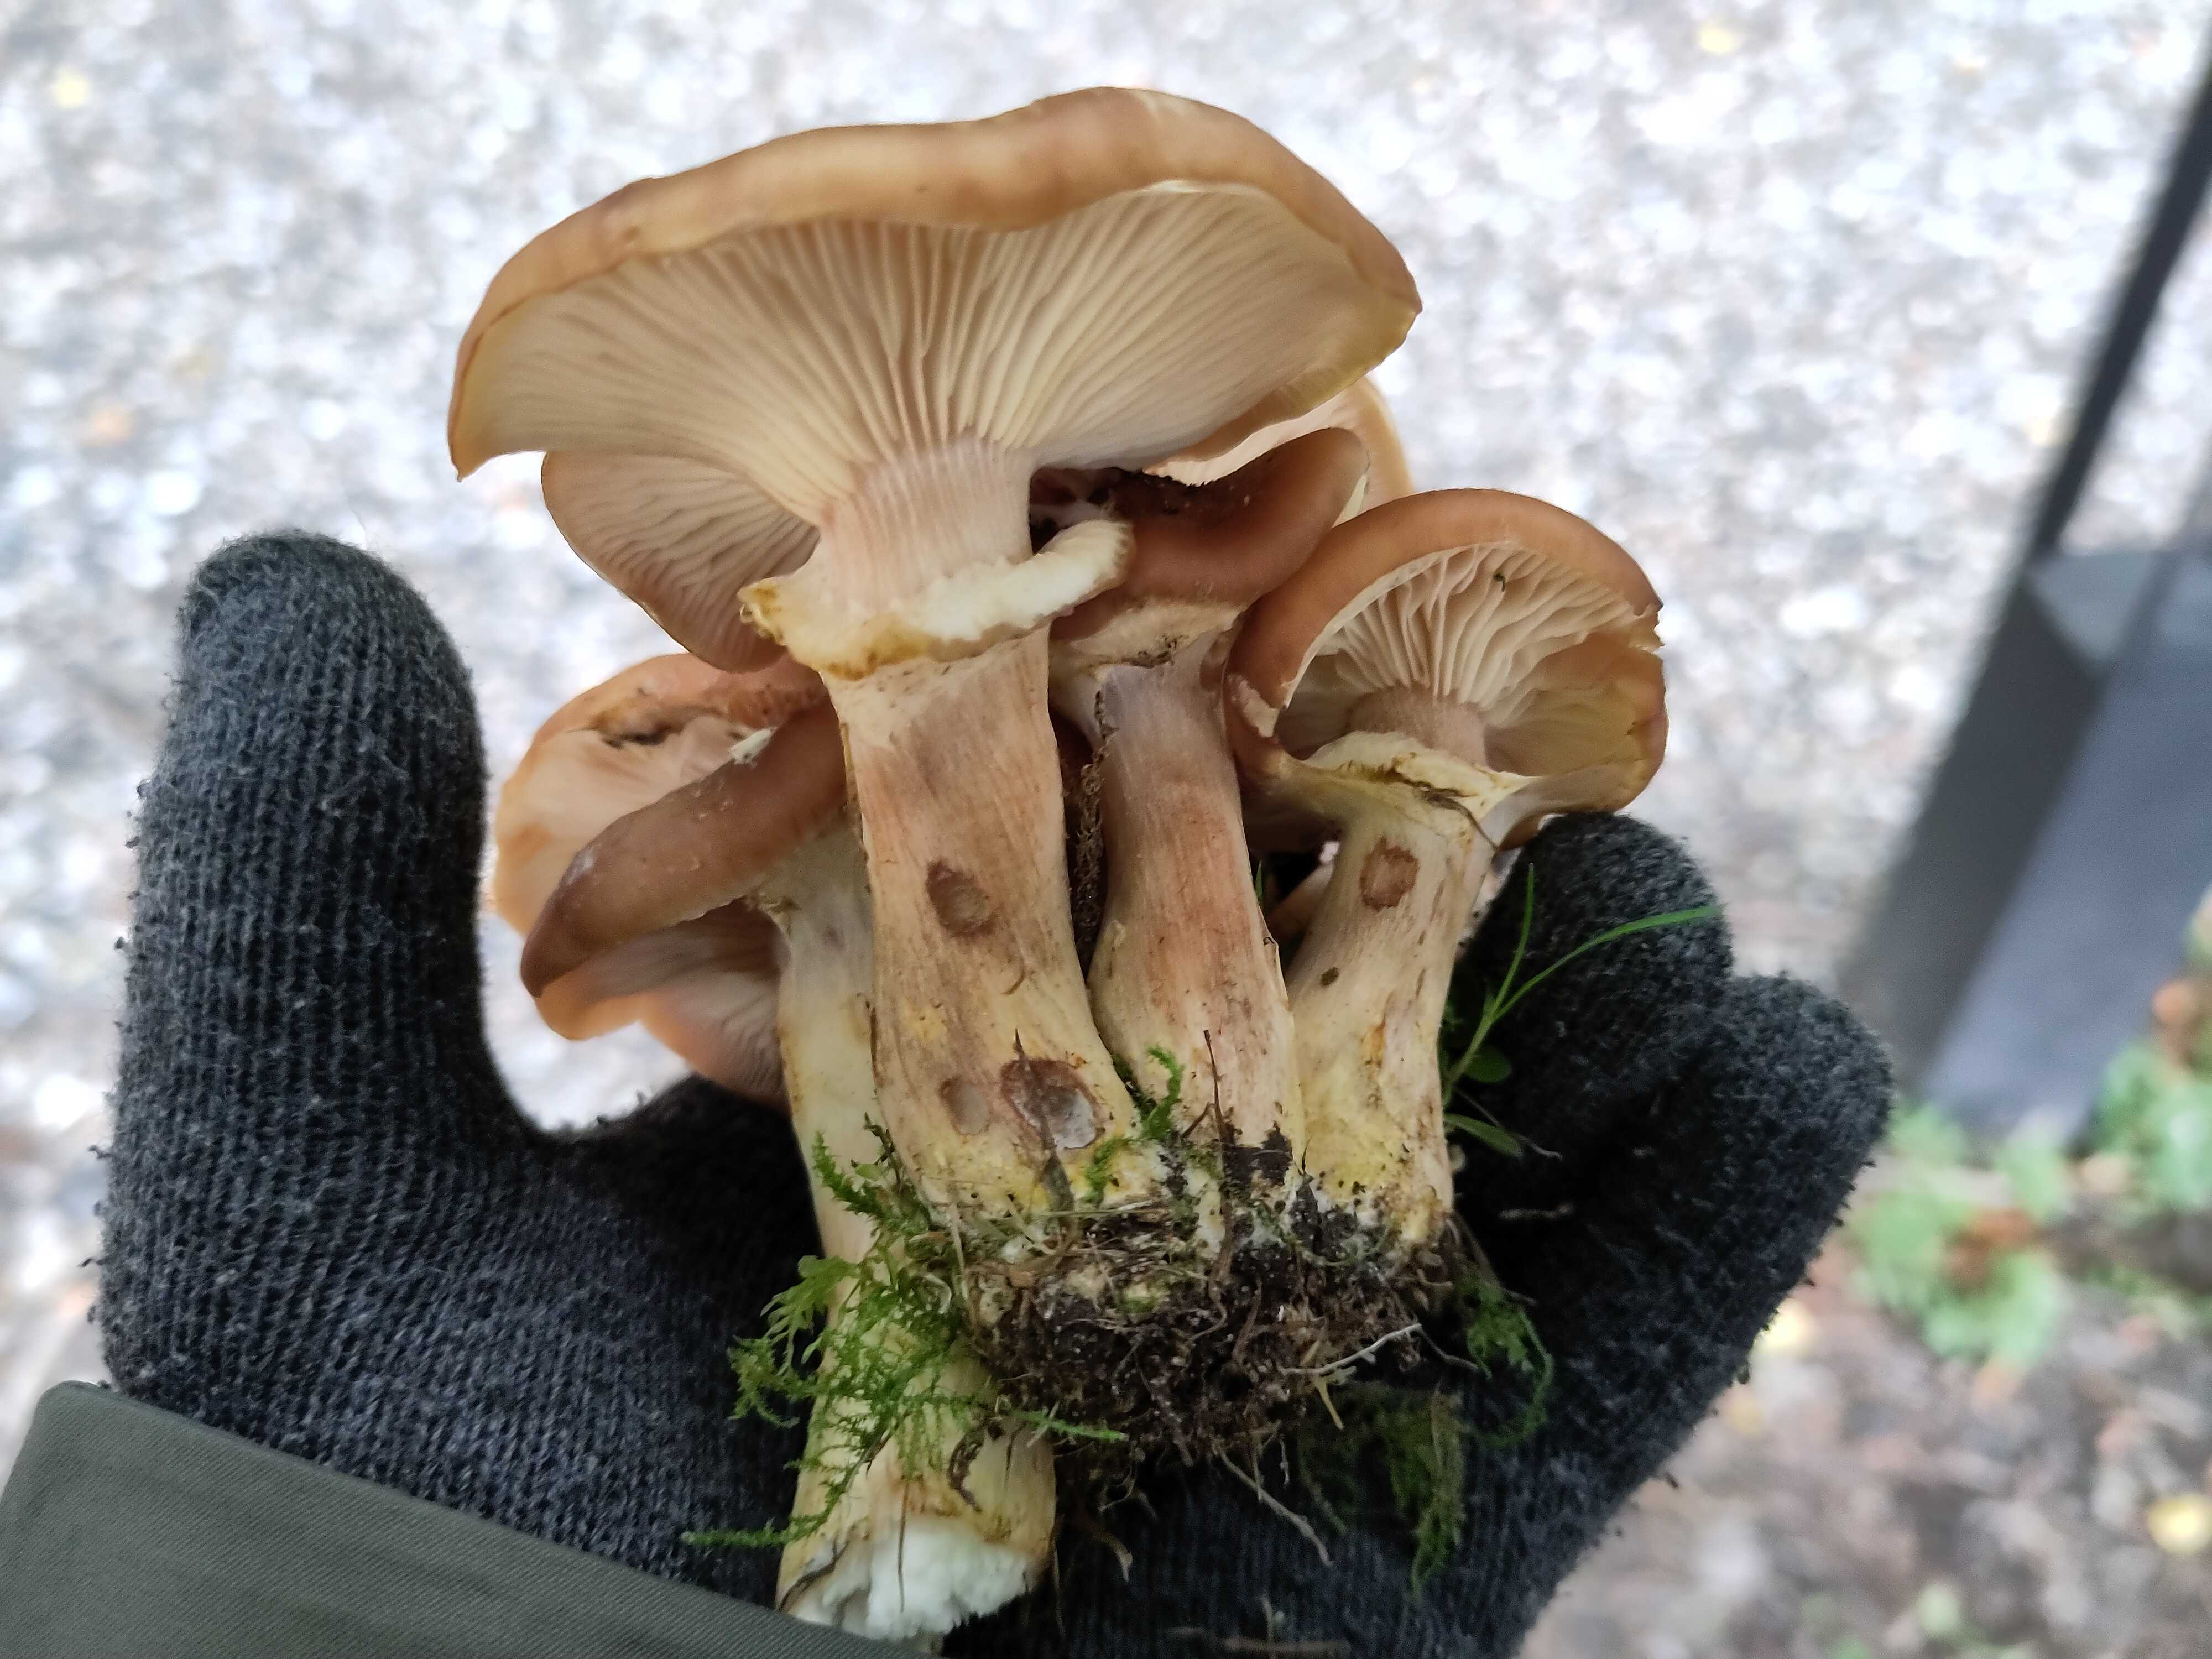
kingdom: Fungi
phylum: Basidiomycota
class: Agaricomycetes
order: Agaricales
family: Physalacriaceae
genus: Armillaria
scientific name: Armillaria lutea
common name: køllestokket honningsvamp
